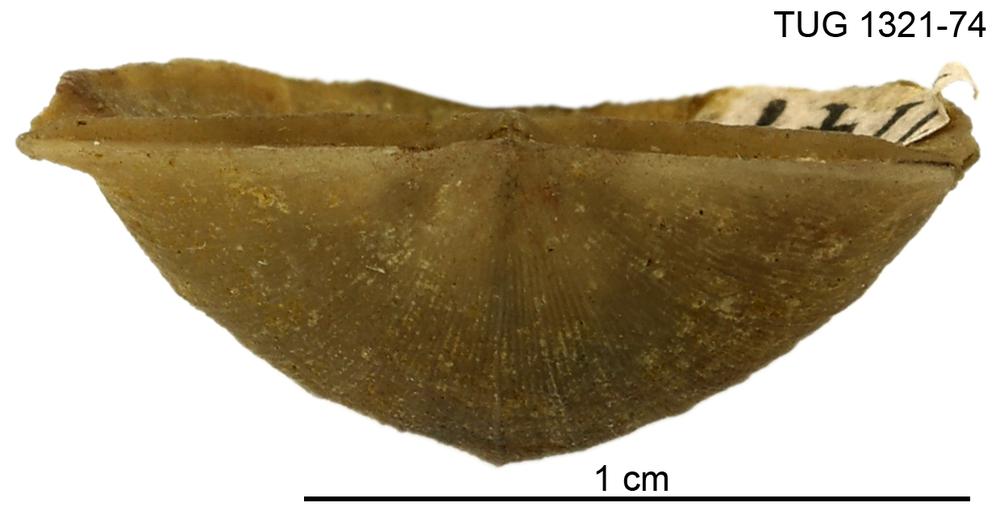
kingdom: Animalia
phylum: Brachiopoda
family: Sowerbyellidae
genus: Sowerbyella
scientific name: Sowerbyella liliifera
